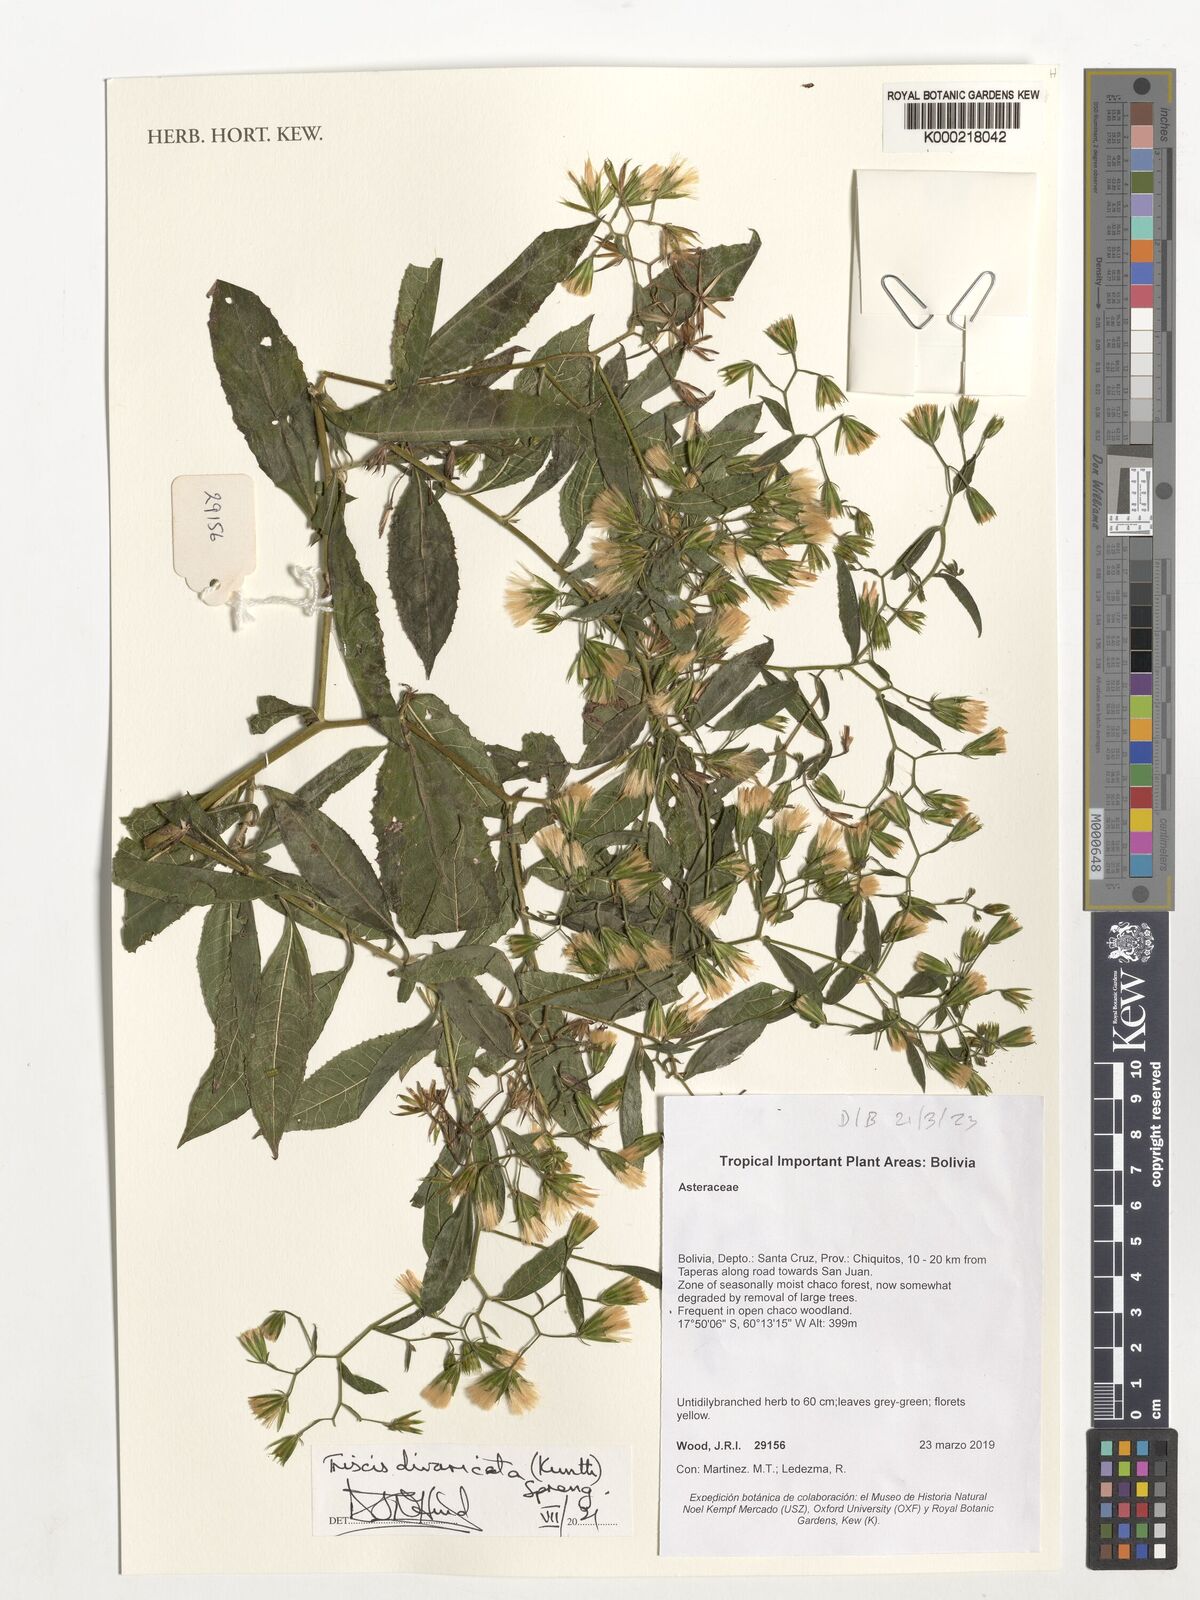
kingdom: Plantae
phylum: Tracheophyta
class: Magnoliopsida
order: Asterales
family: Asteraceae
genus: Trixis
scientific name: Trixis divaricata
